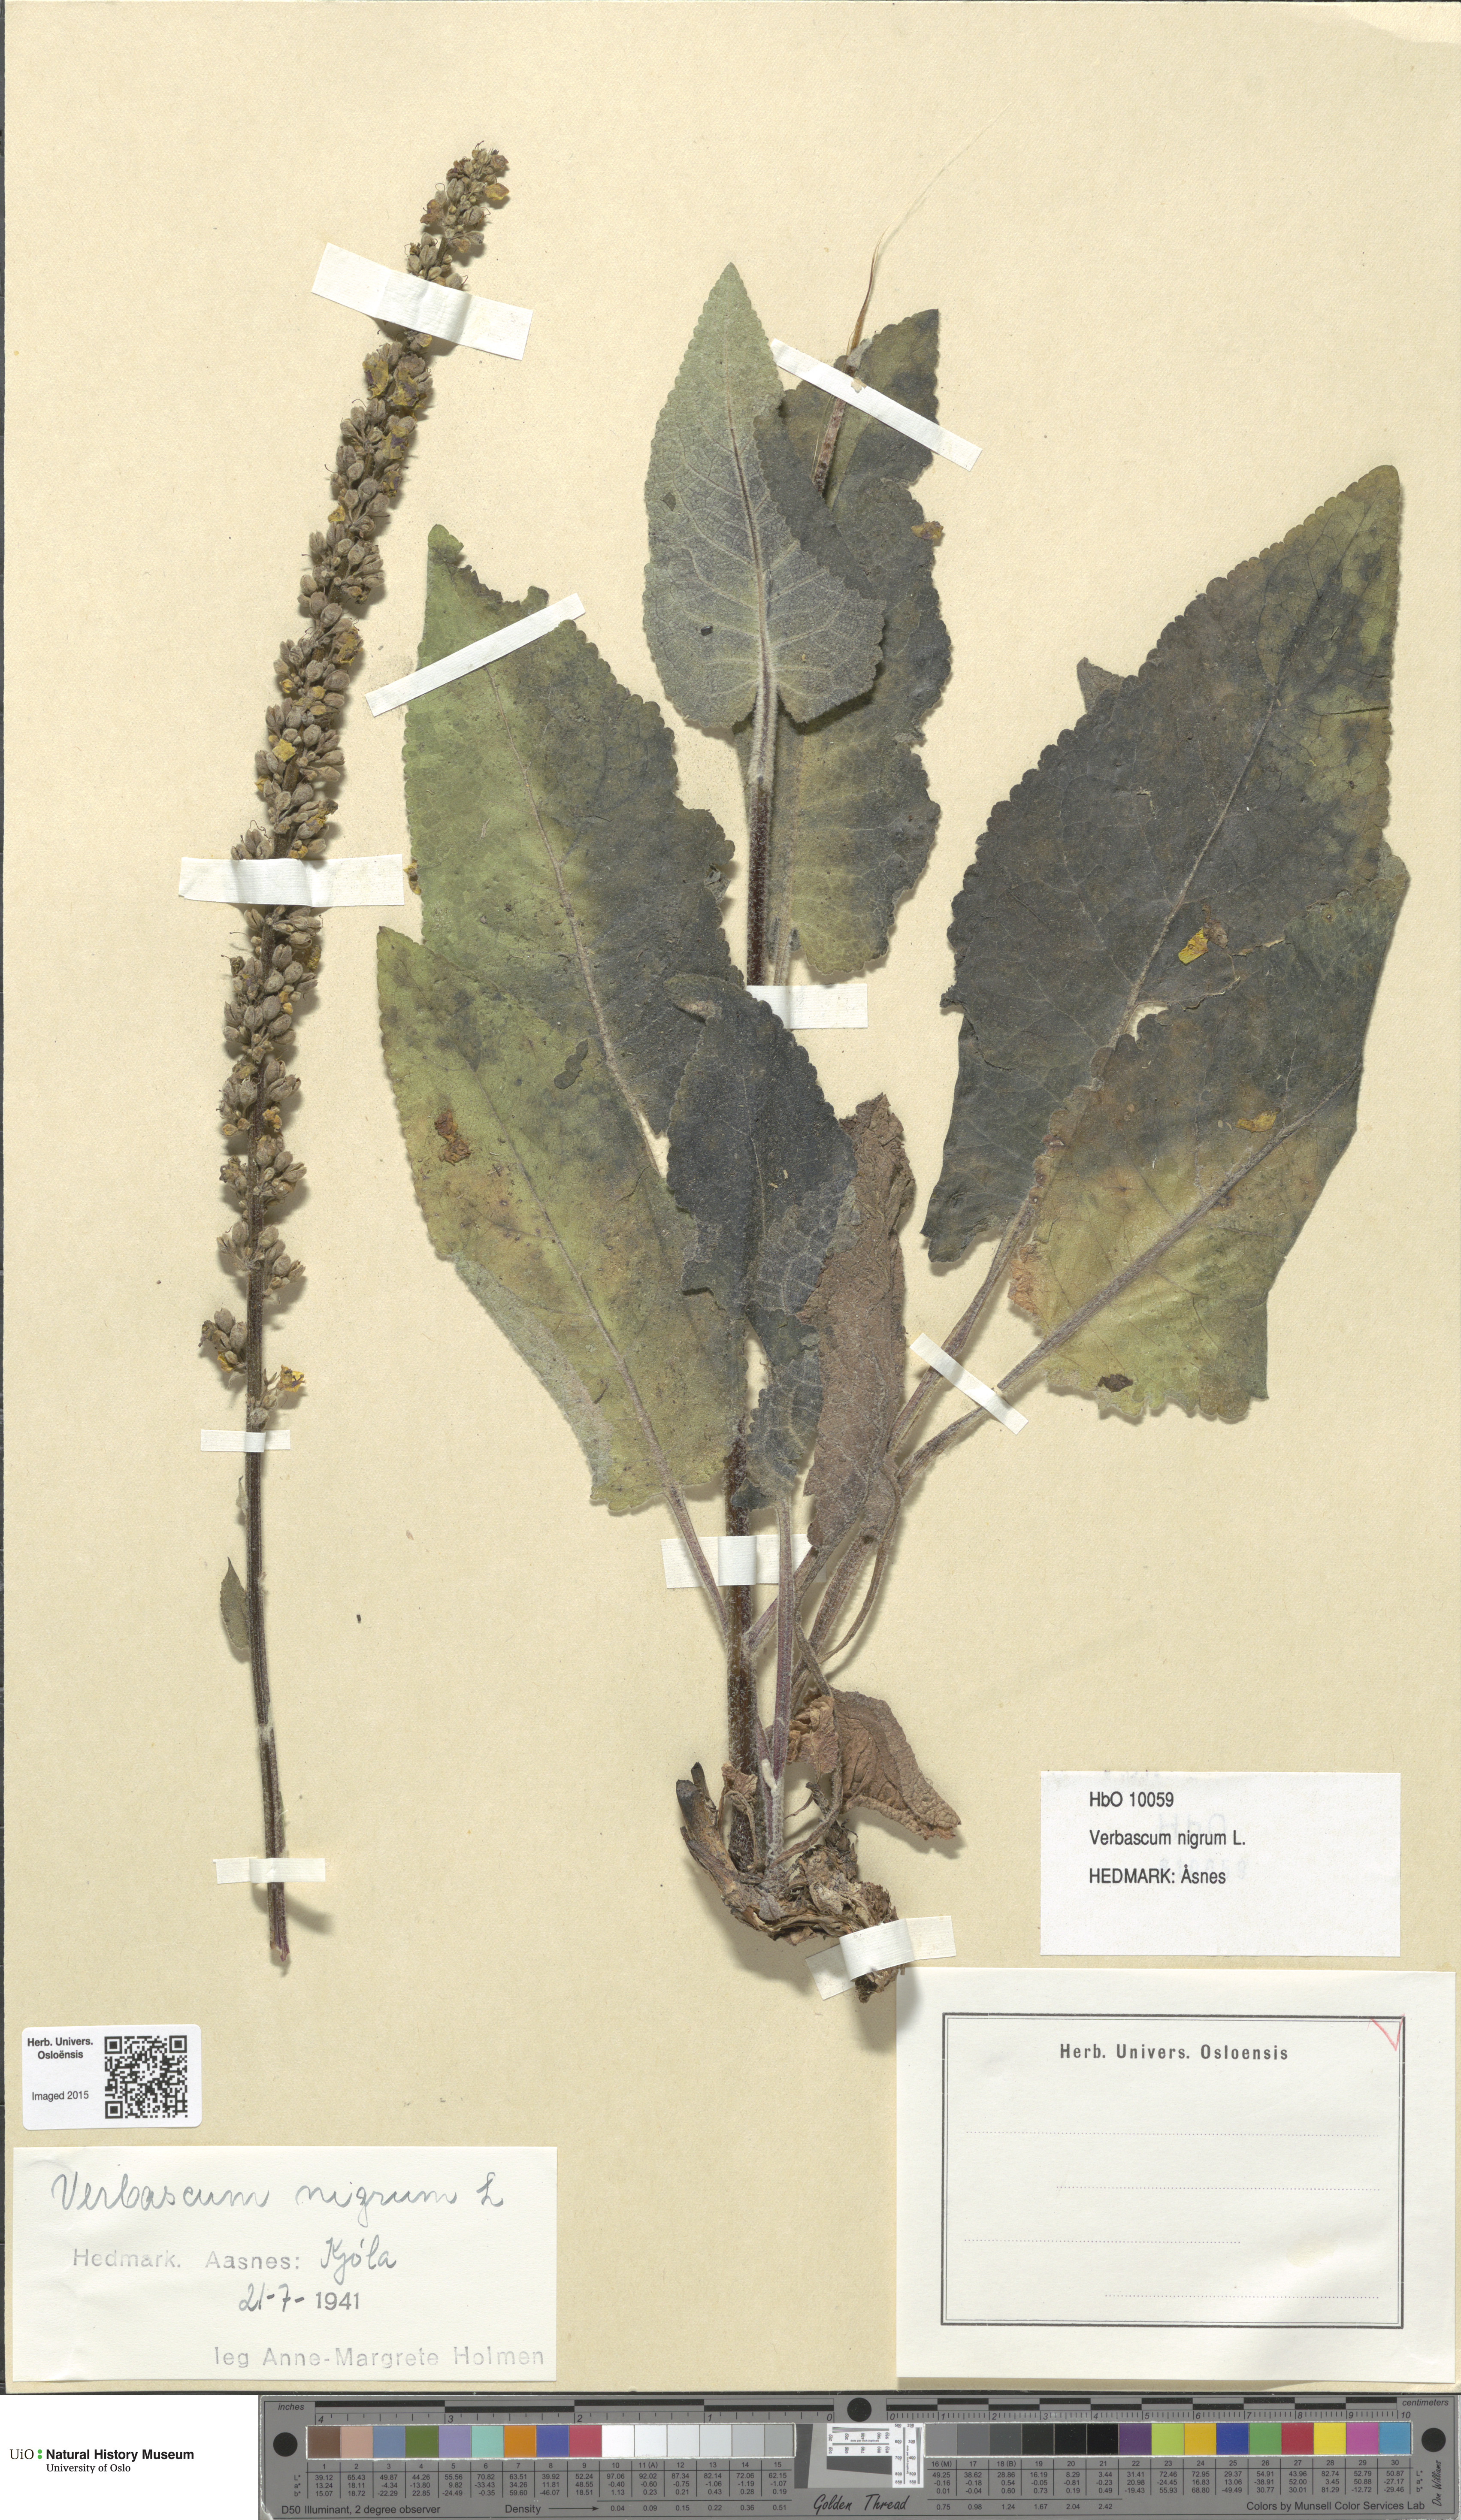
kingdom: Plantae
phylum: Tracheophyta
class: Magnoliopsida
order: Lamiales
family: Scrophulariaceae
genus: Verbascum
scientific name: Verbascum nigrum
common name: Dark mullein
